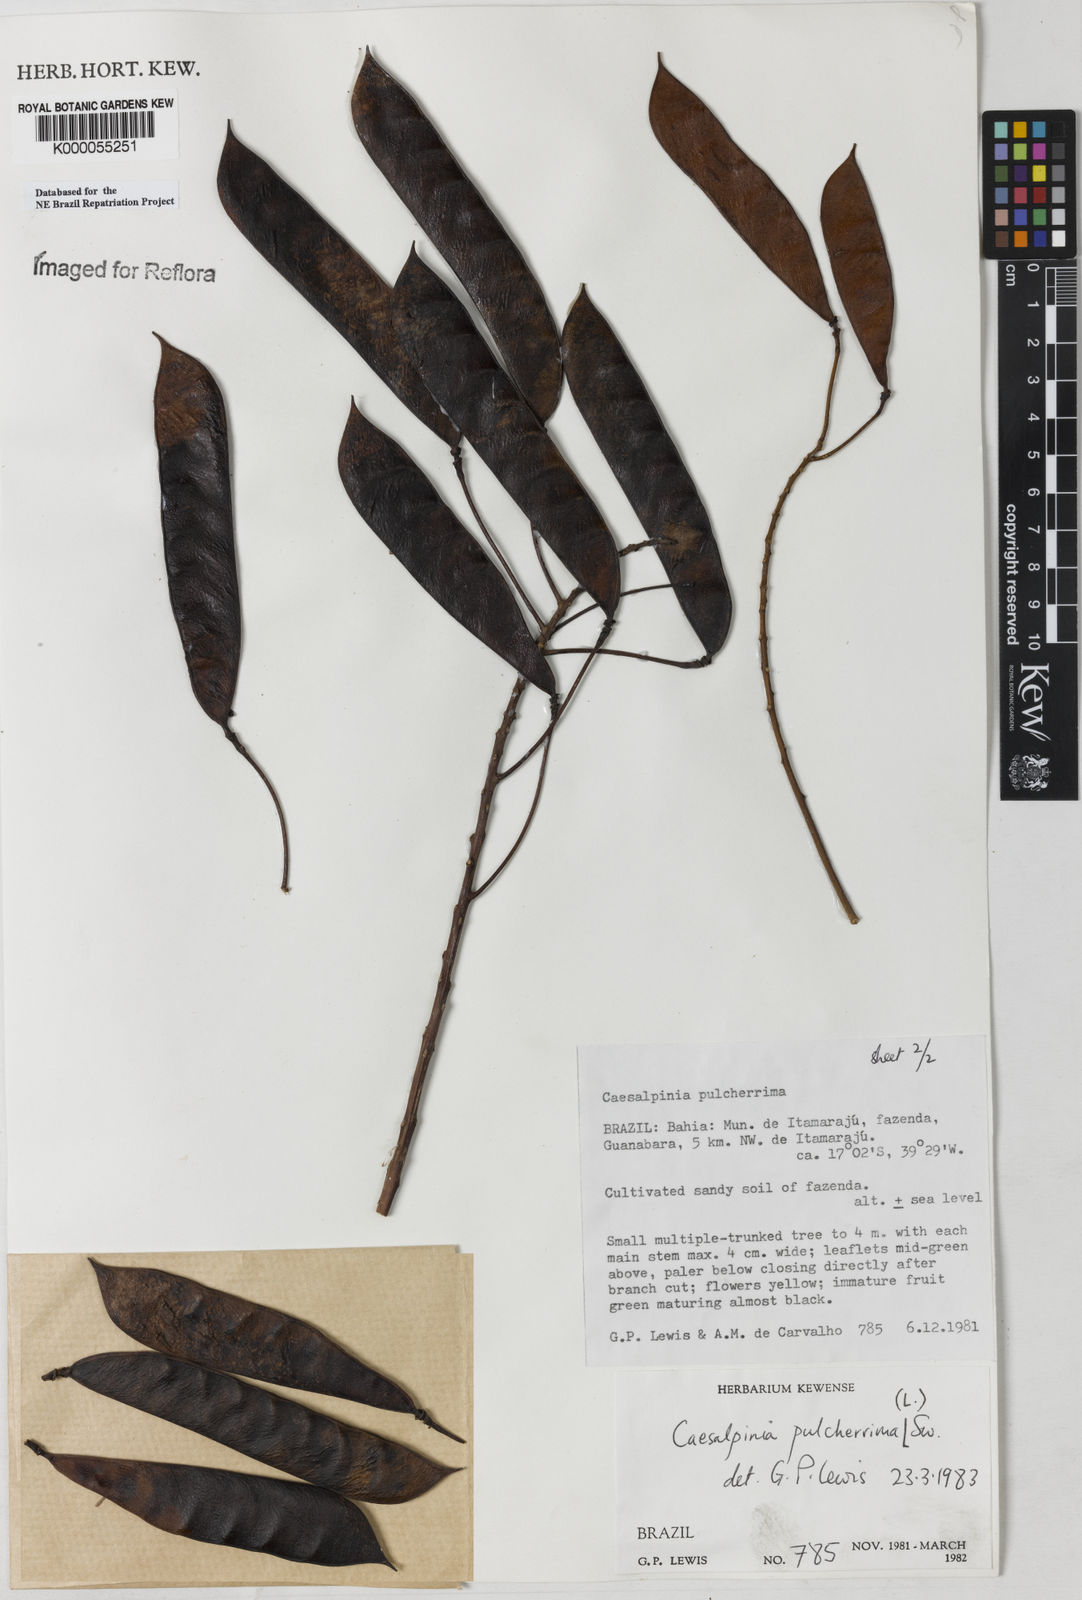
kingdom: Plantae
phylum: Tracheophyta
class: Magnoliopsida
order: Fabales
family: Fabaceae
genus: Caesalpinia
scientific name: Caesalpinia pulcherrima
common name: Pride-of-barbados
